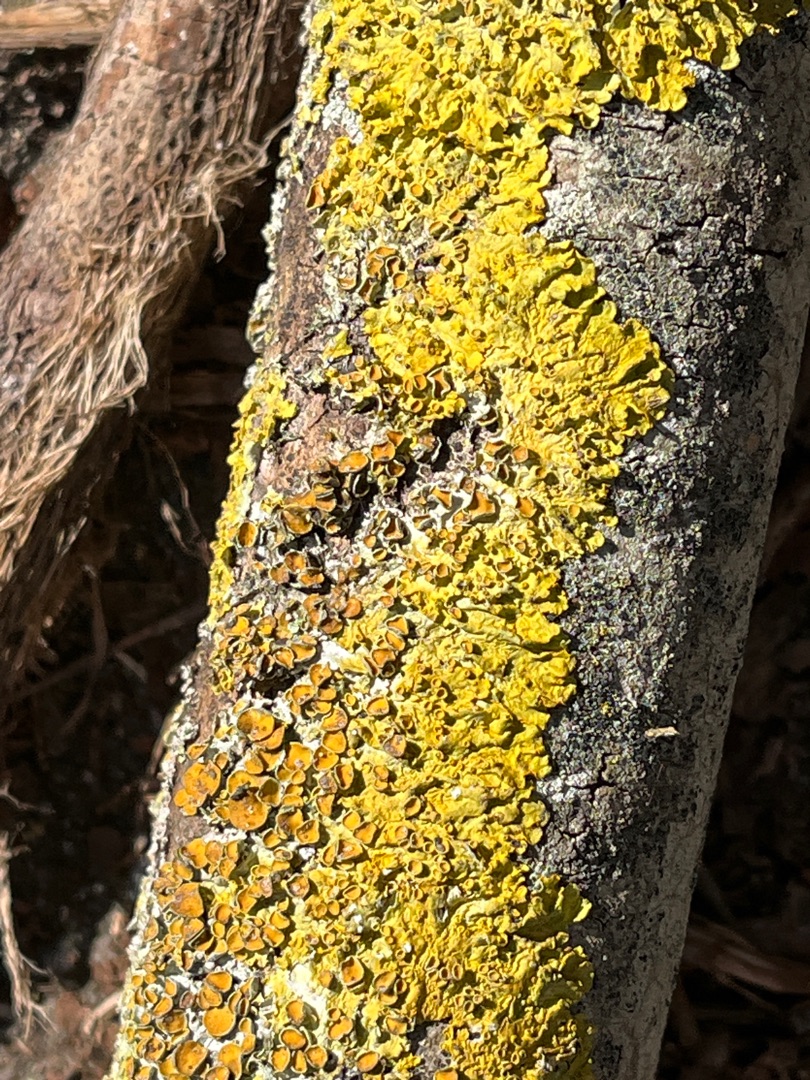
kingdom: Fungi
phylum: Ascomycota
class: Lecanoromycetes
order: Teloschistales
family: Teloschistaceae
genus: Xanthoria
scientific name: Xanthoria parietina
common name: Almindelig væggelav
